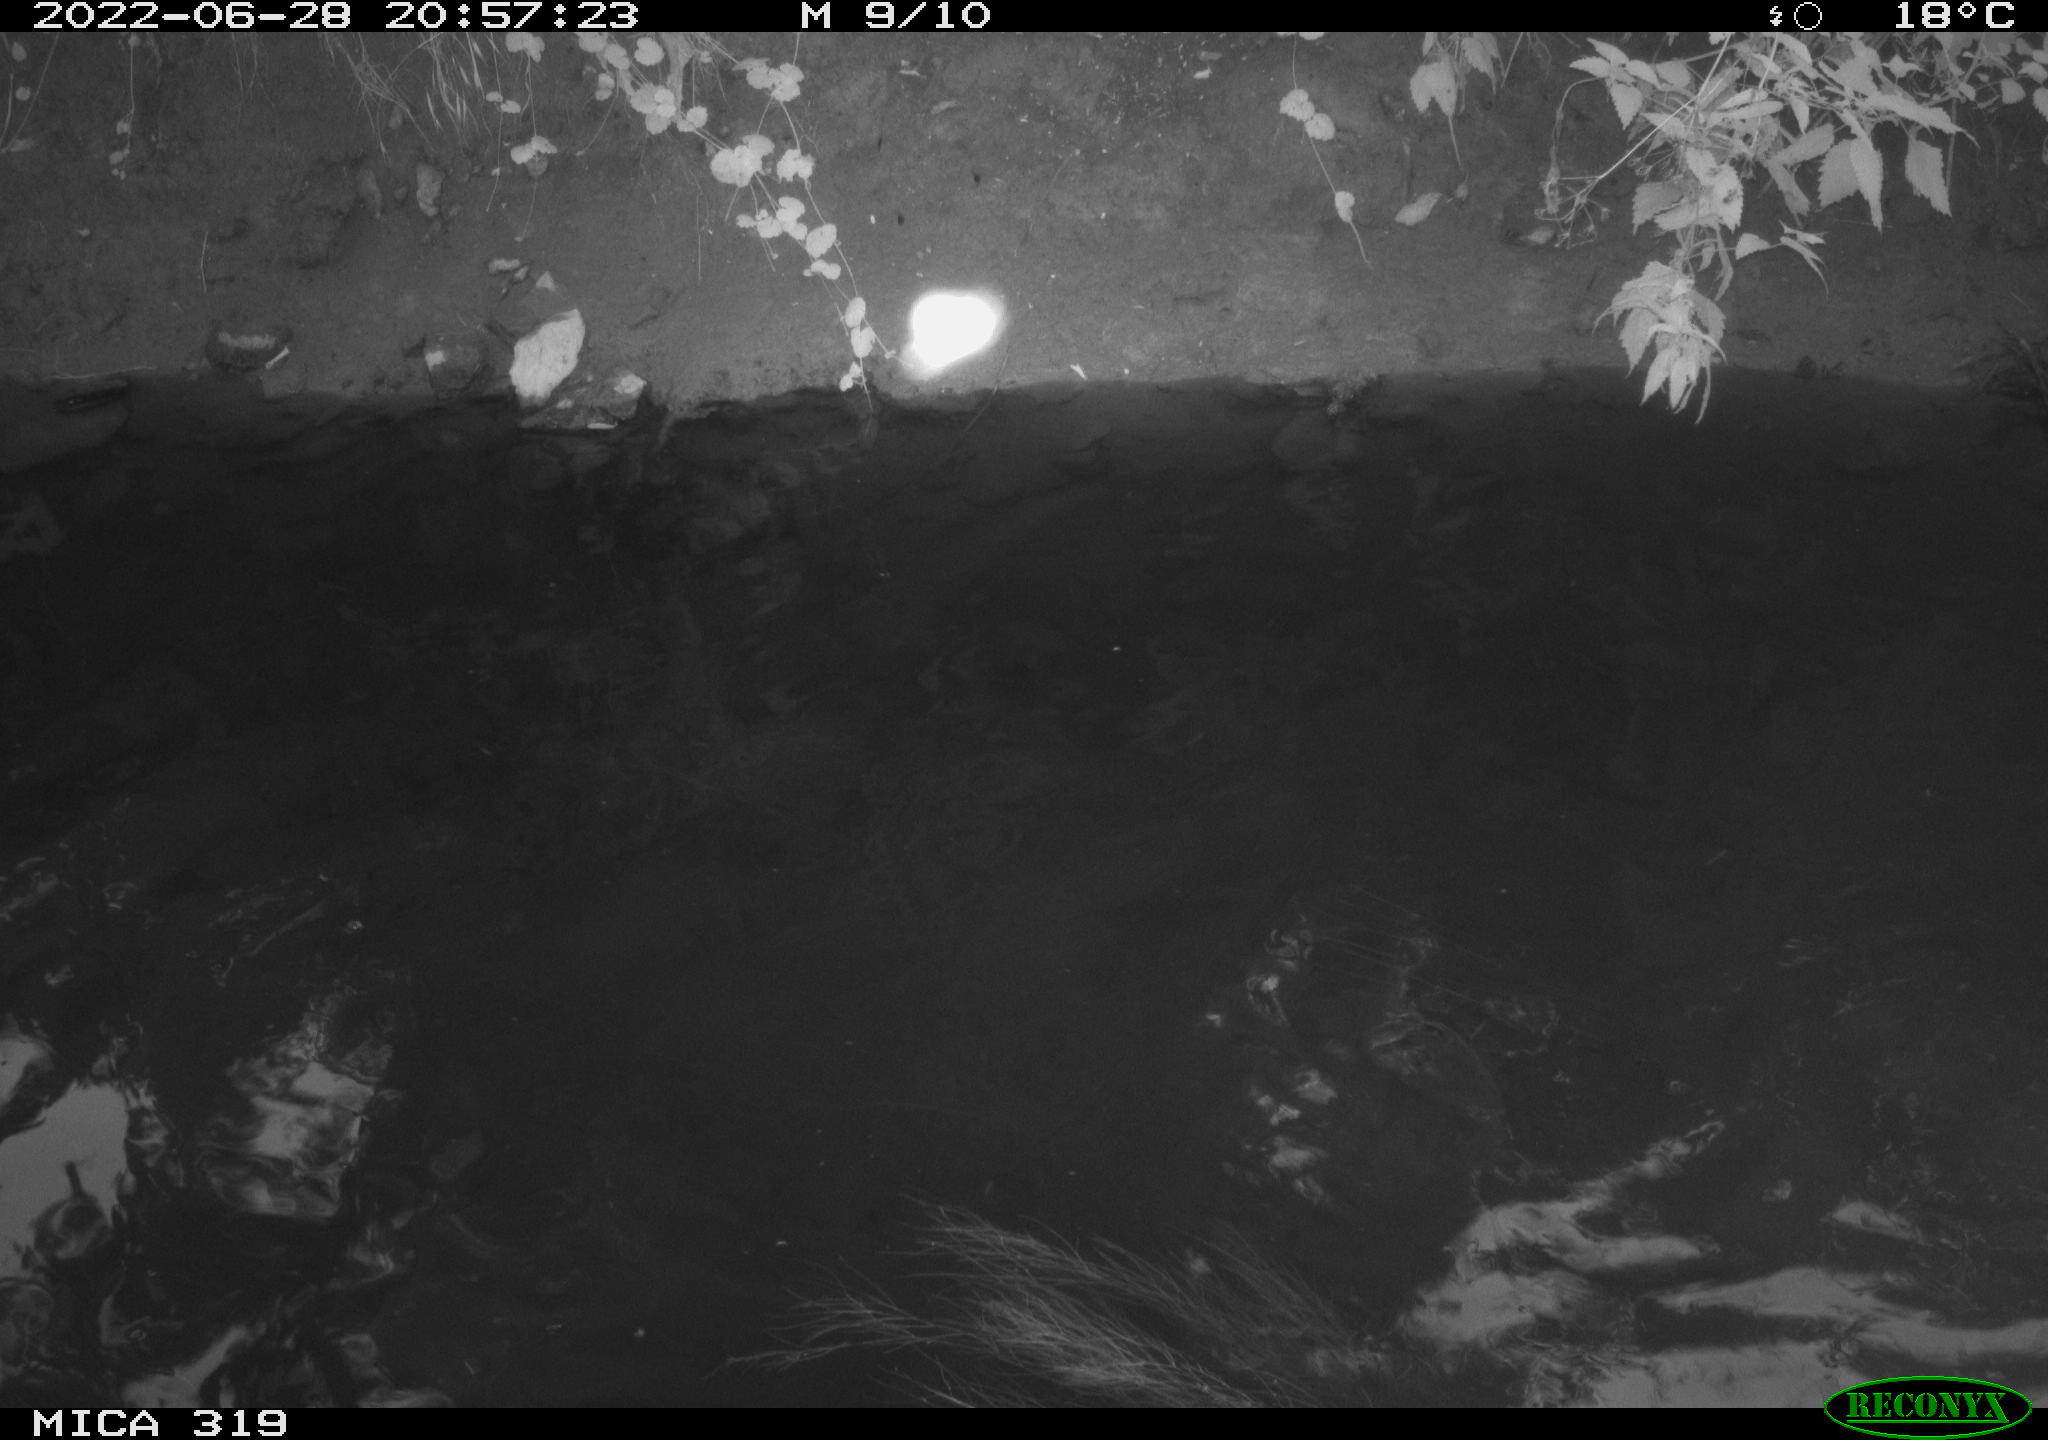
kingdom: Animalia
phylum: Chordata
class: Aves
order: Anseriformes
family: Anatidae
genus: Mareca
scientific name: Mareca strepera
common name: Gadwall
